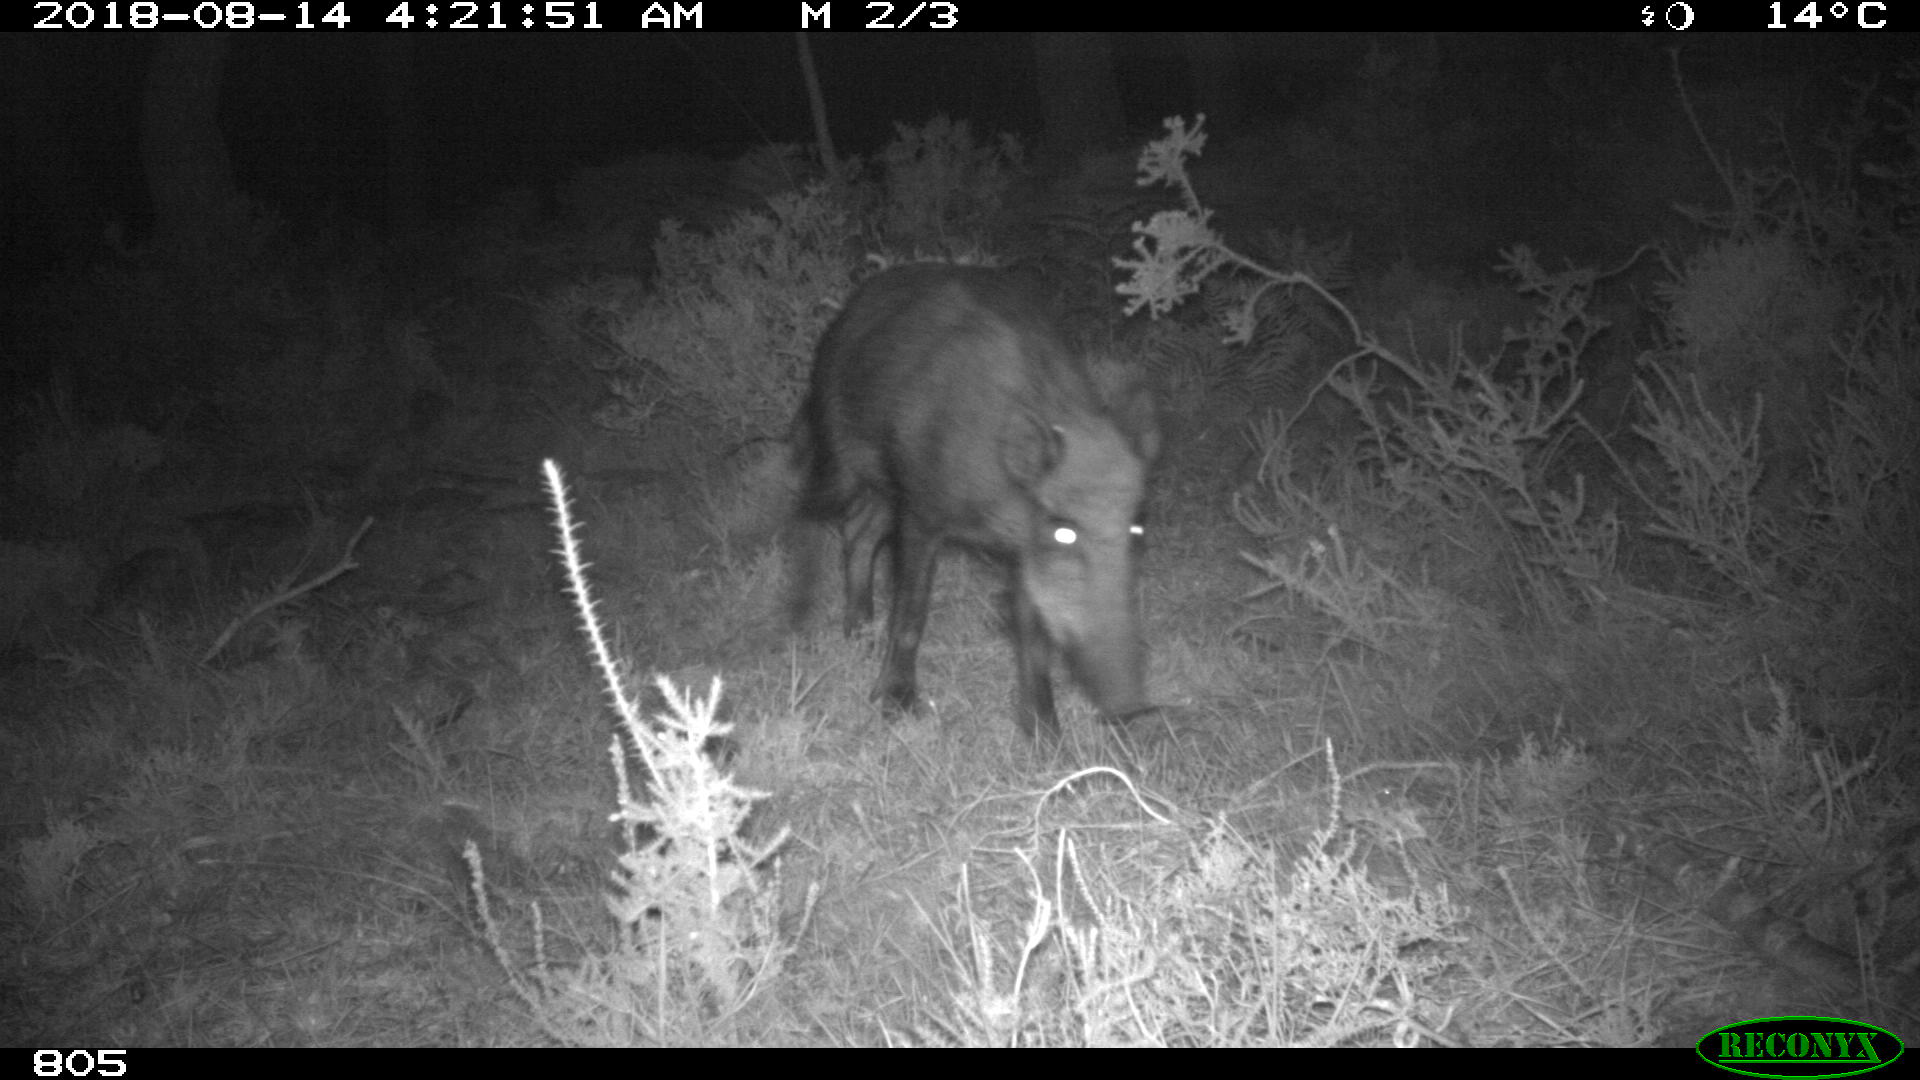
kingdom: Animalia
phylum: Chordata
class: Mammalia
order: Artiodactyla
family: Suidae
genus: Sus
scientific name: Sus scrofa
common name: Wild boar
